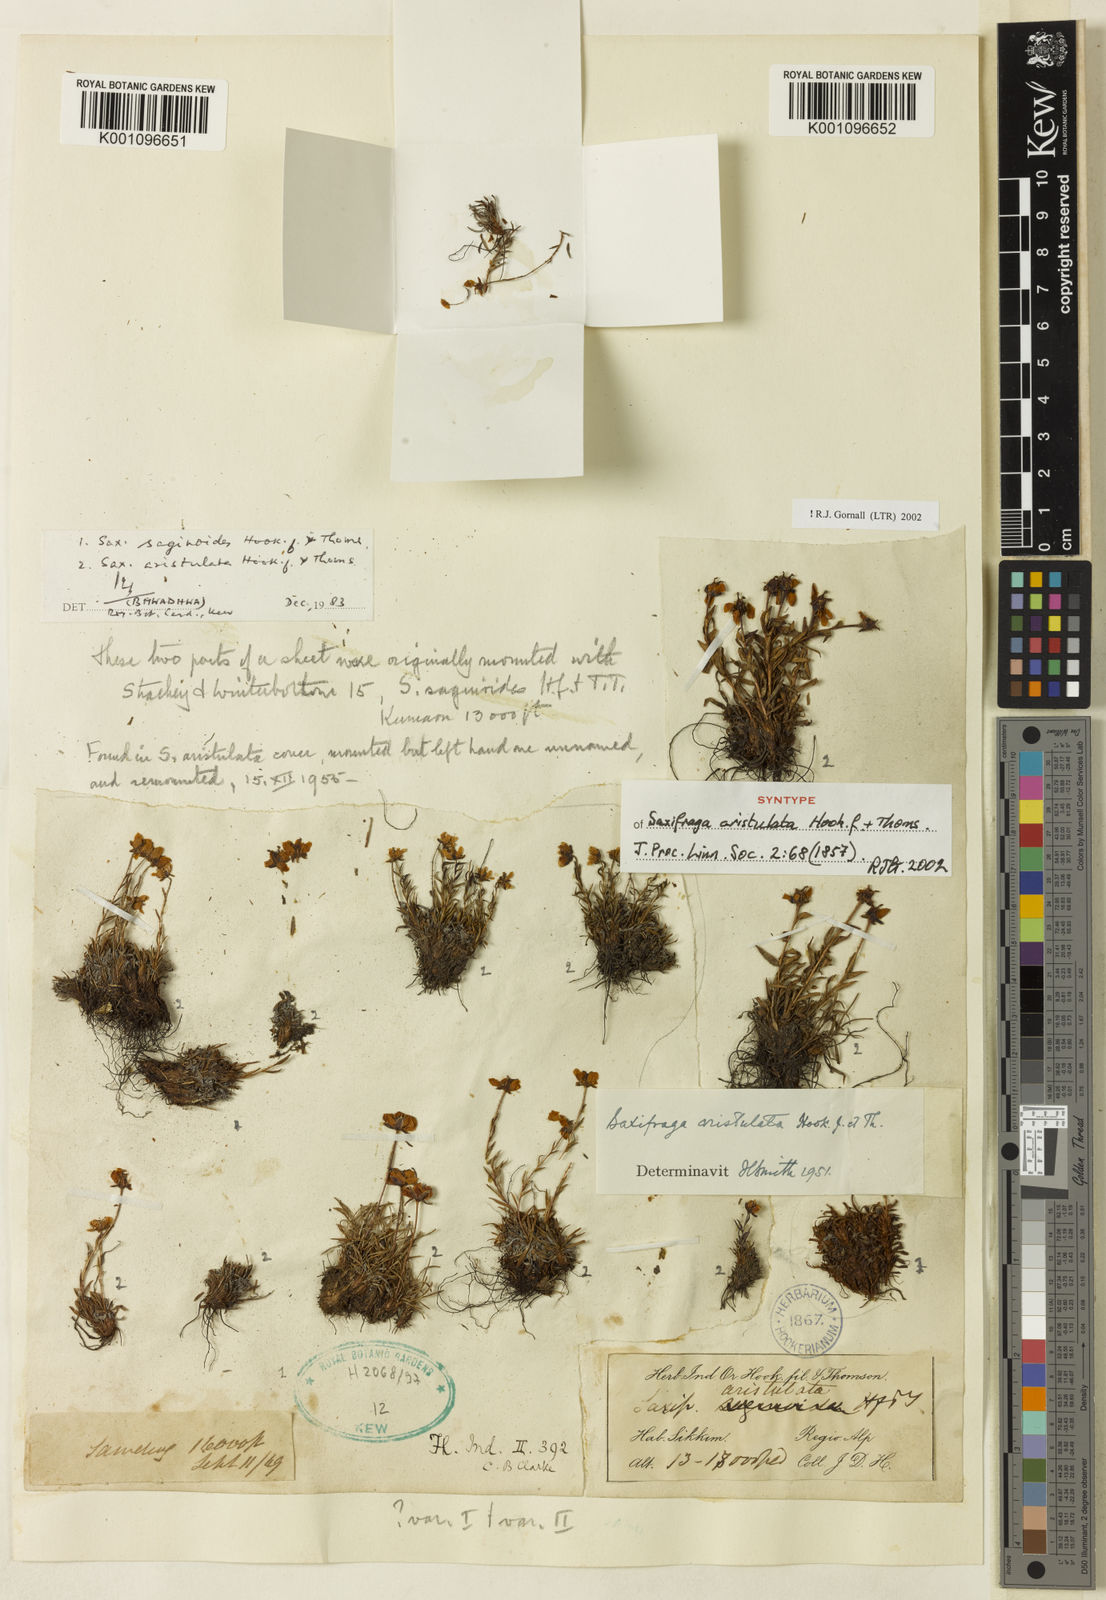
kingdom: Plantae
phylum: Tracheophyta
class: Magnoliopsida
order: Saxifragales
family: Saxifragaceae
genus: Saxifraga
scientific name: Saxifraga aristulata
